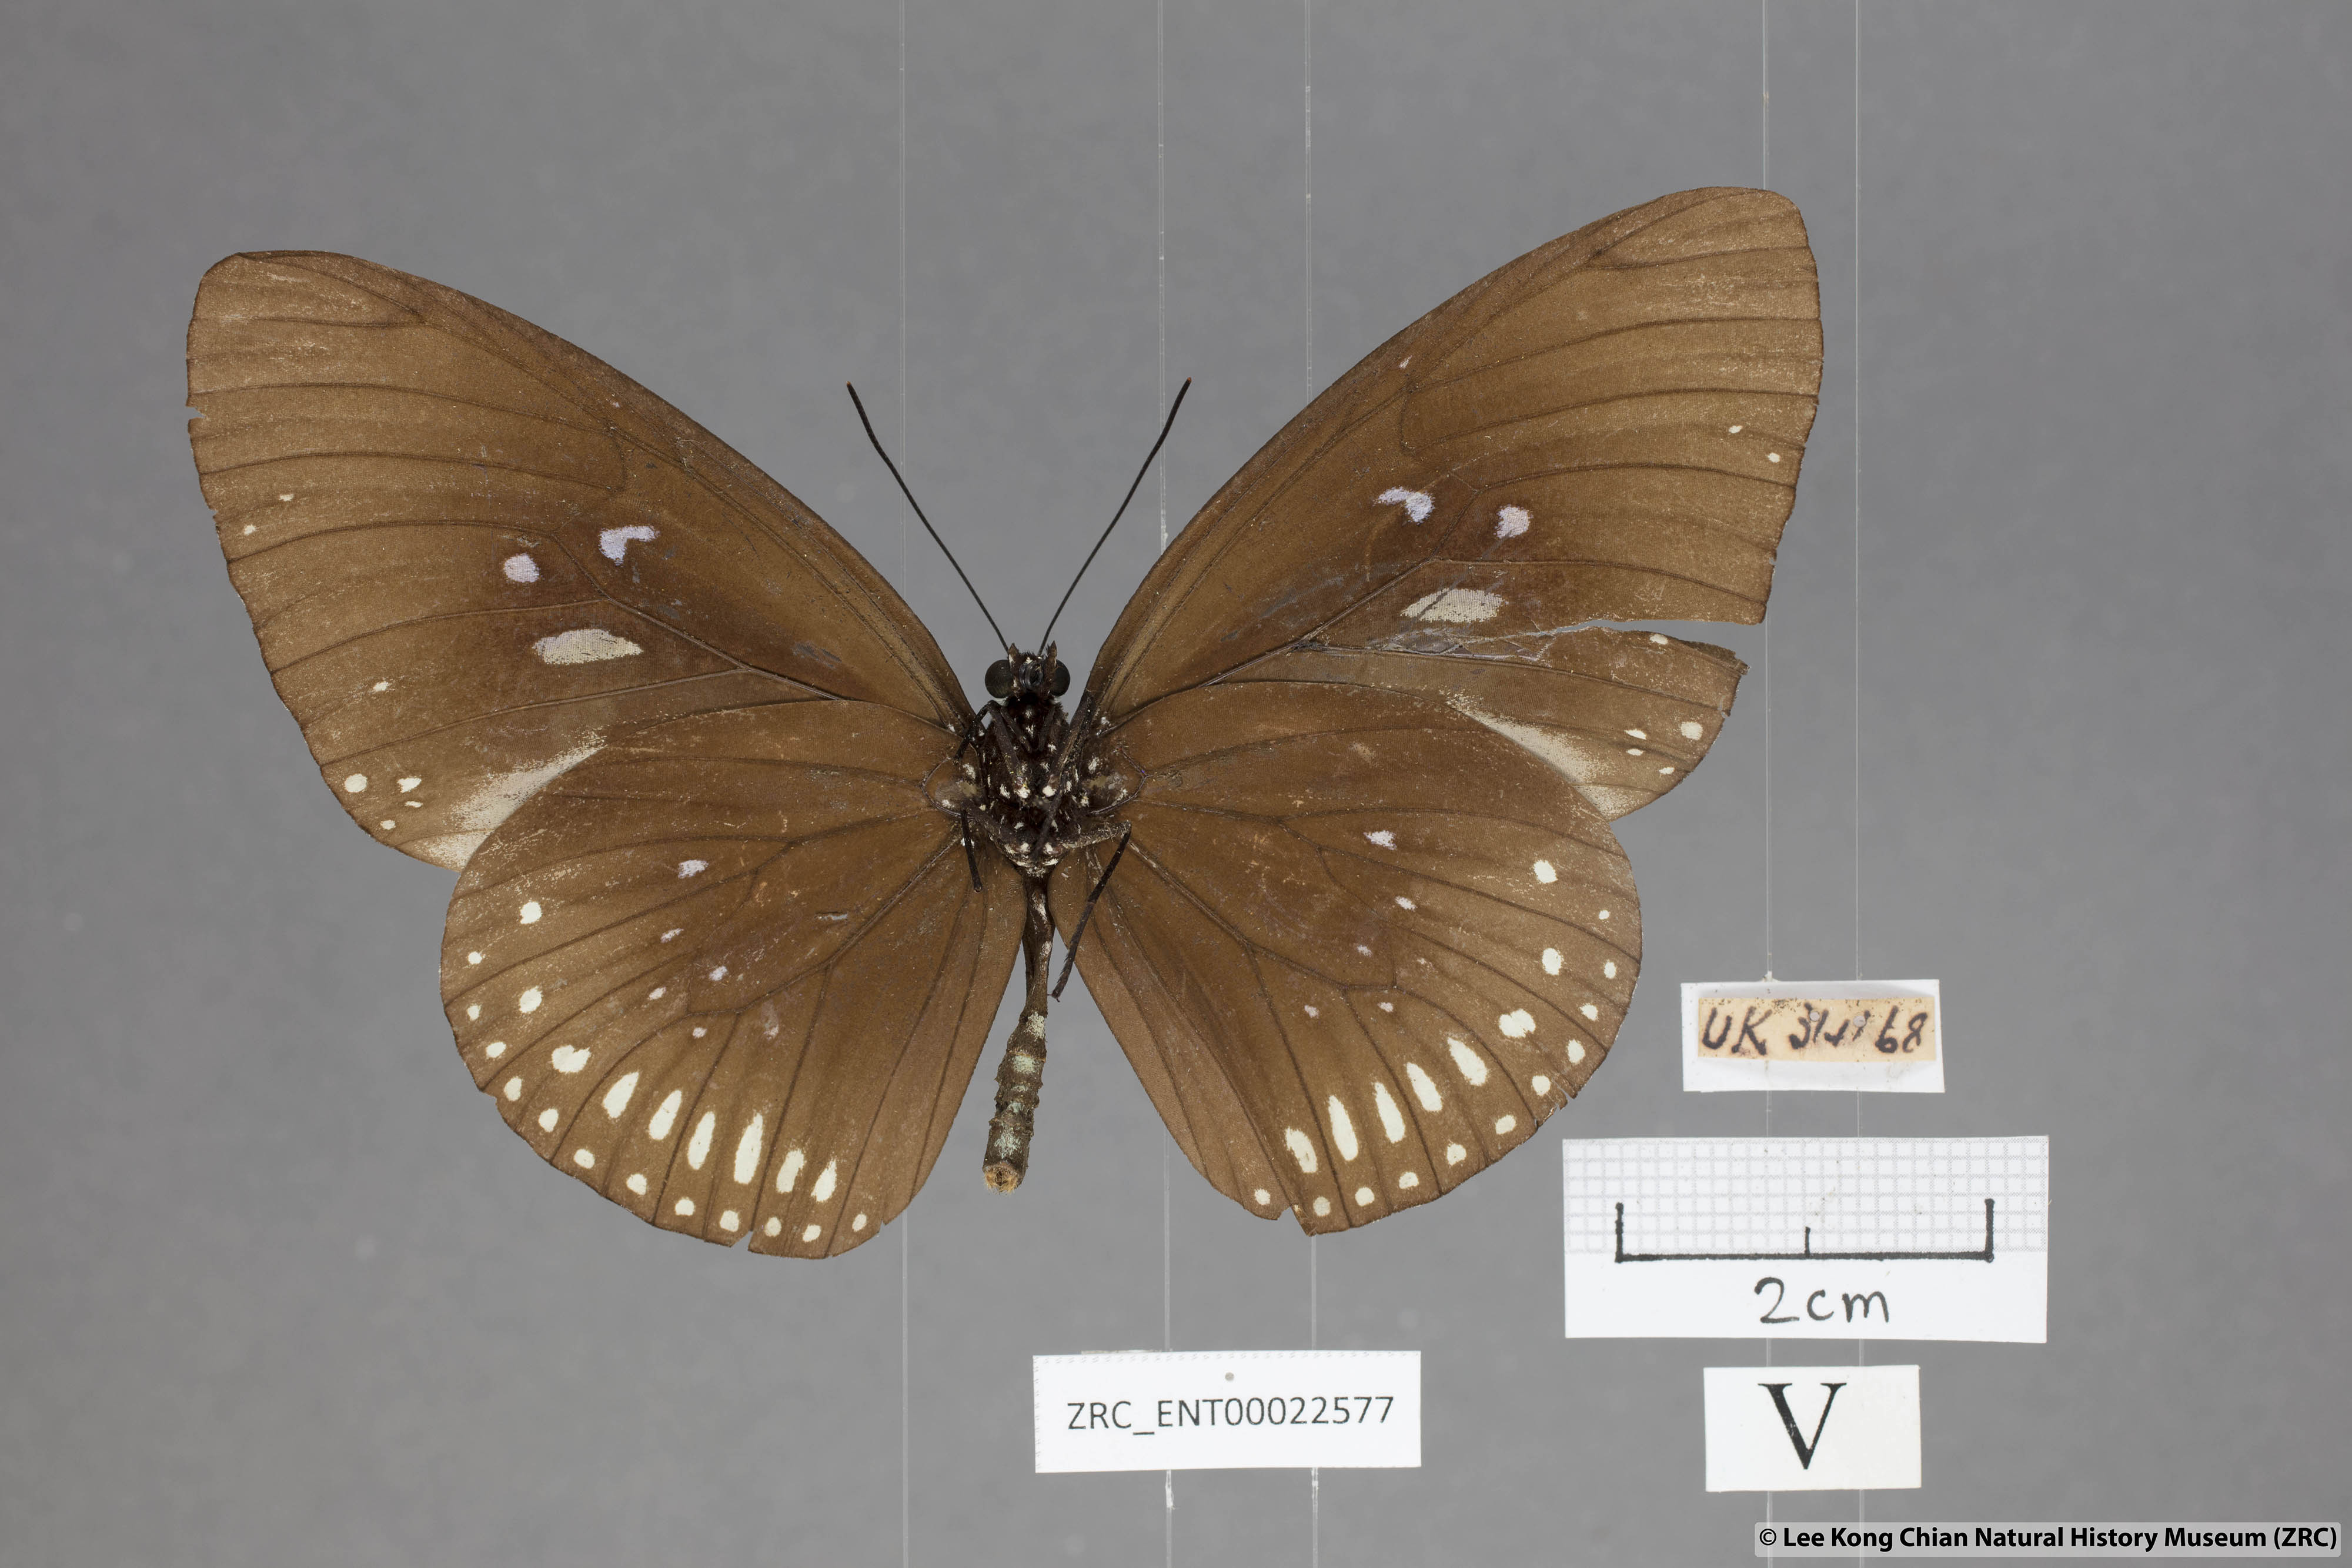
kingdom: Animalia
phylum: Arthropoda
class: Insecta
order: Lepidoptera
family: Nymphalidae
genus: Euploea
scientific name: Euploea midamus
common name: Blue-spotted crow butterfly
